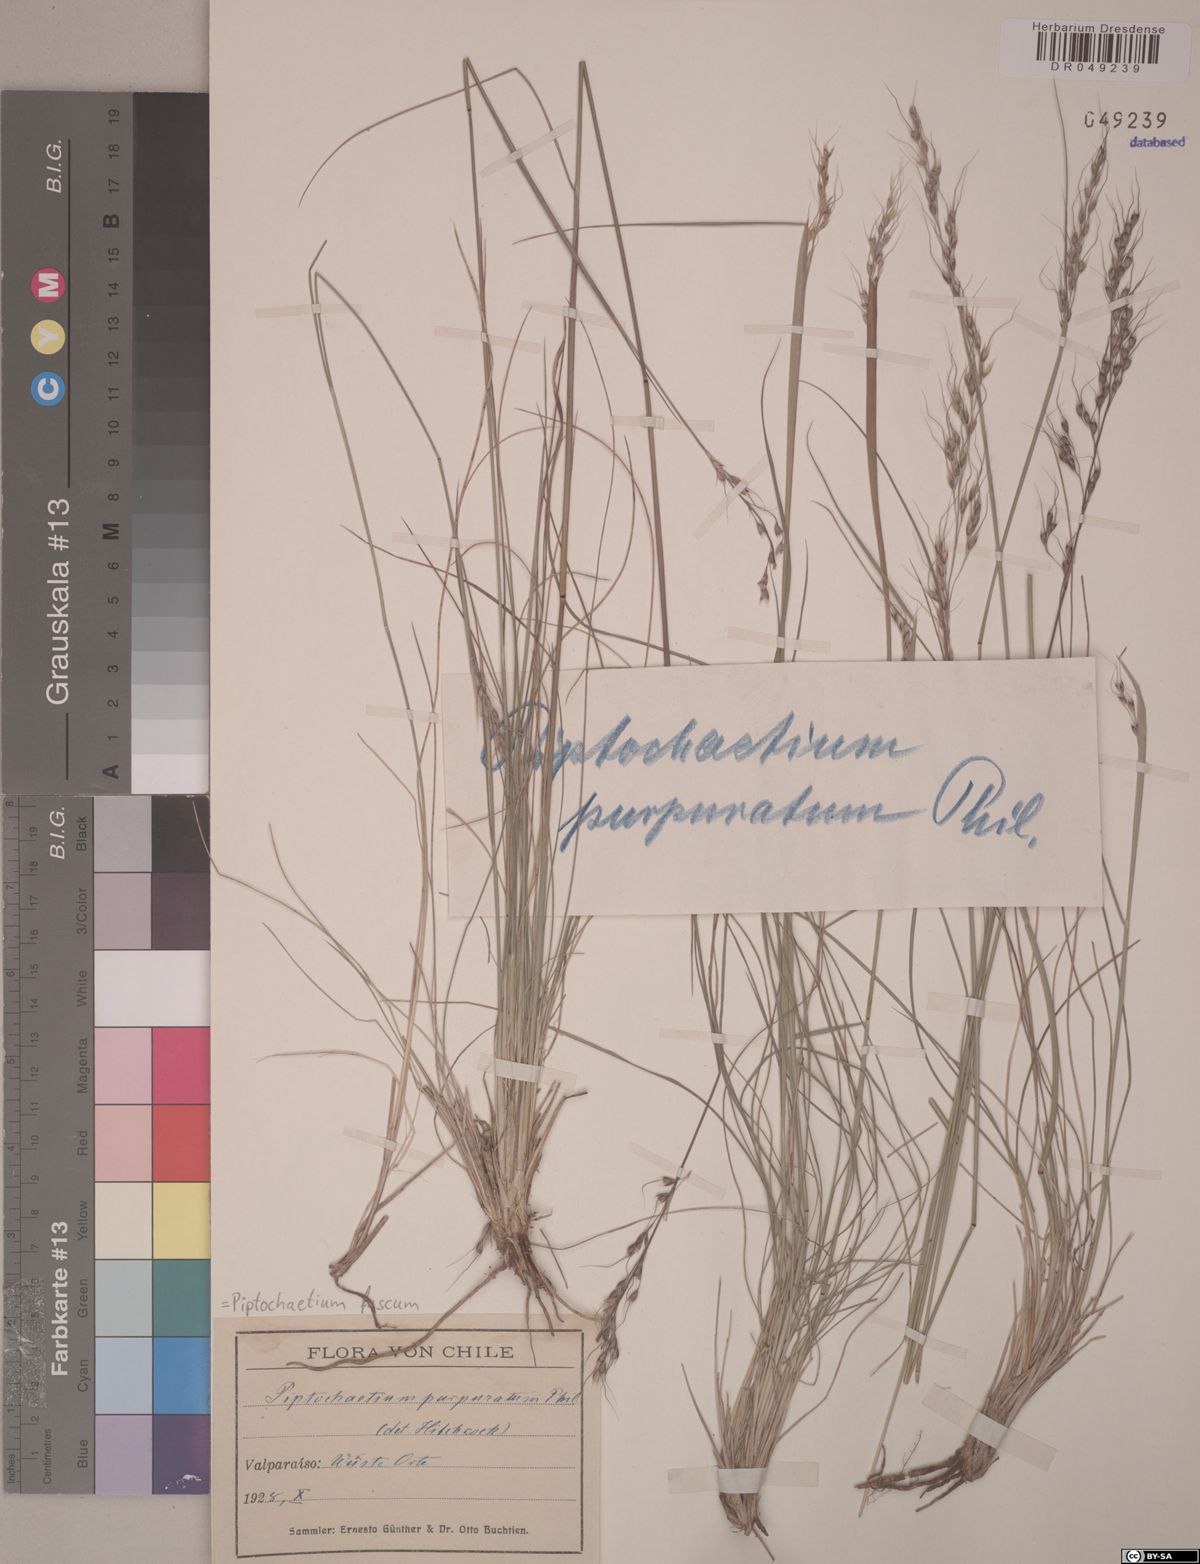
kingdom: Plantae
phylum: Tracheophyta
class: Liliopsida
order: Poales
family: Poaceae
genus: Piptochaetium
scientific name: Piptochaetium fuscum
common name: Bristly speargrass
